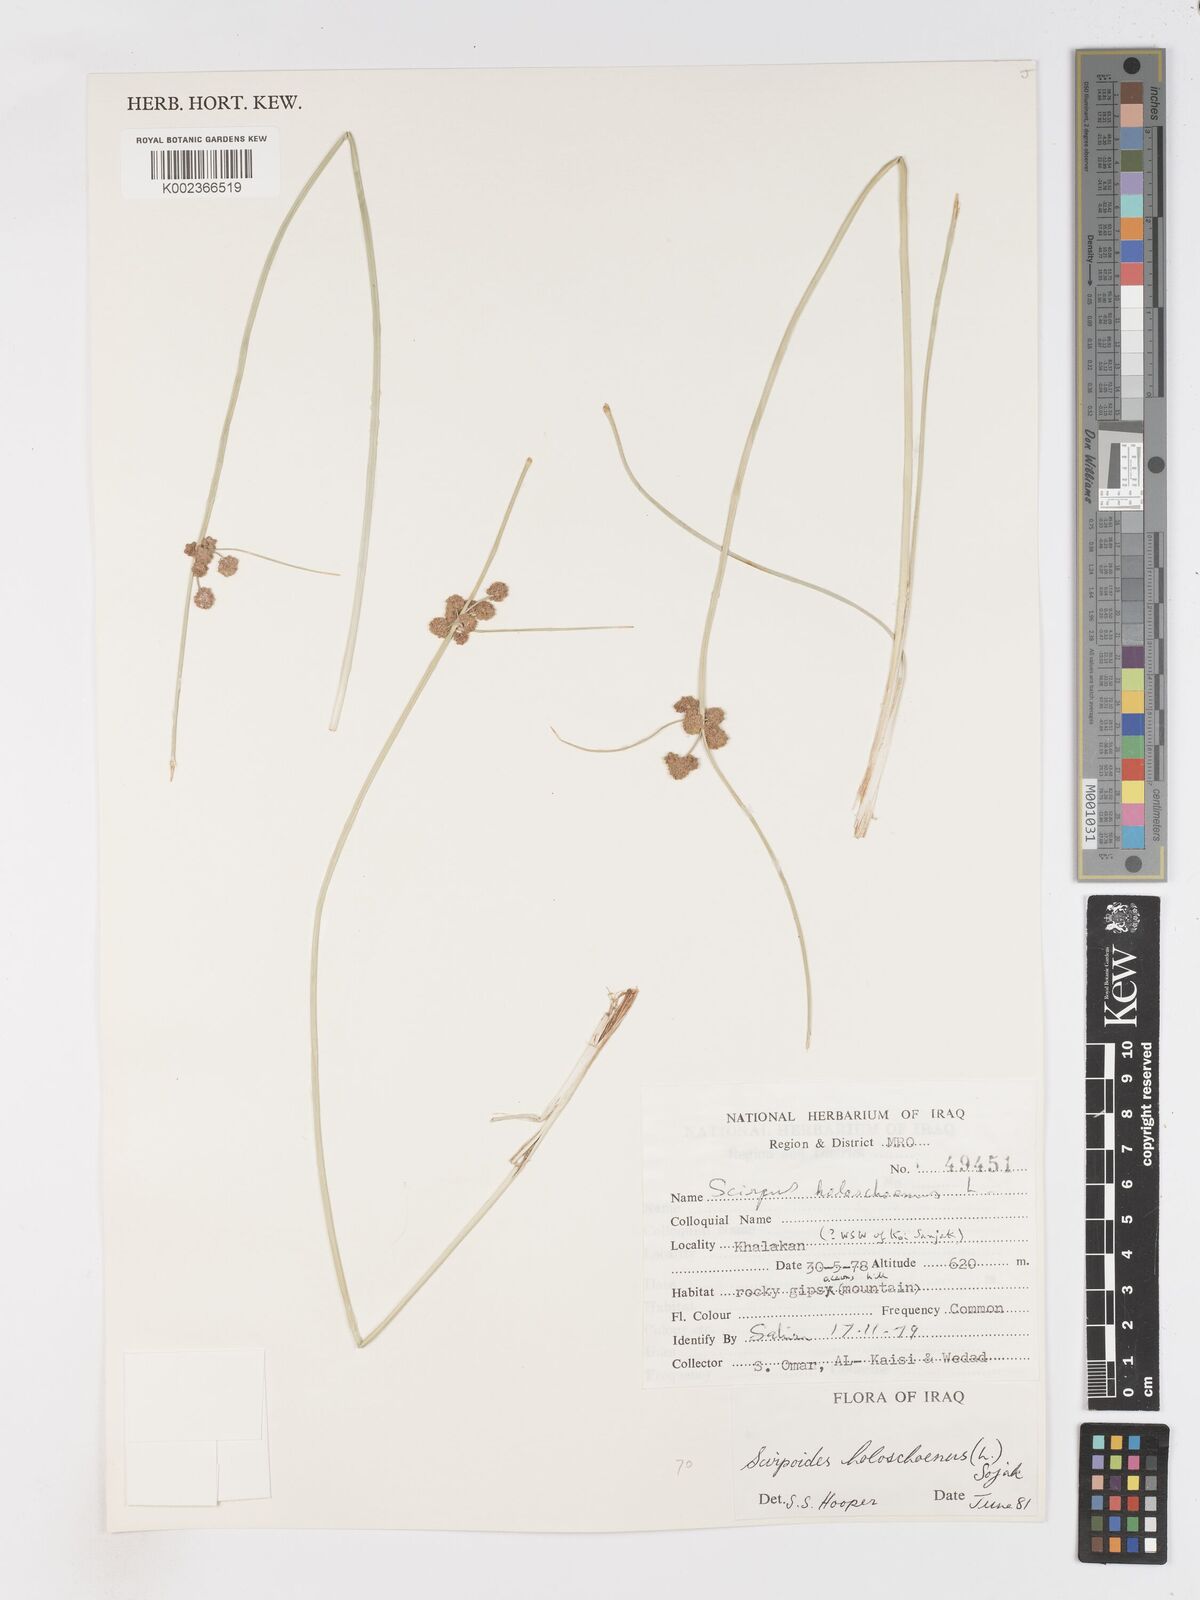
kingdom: Plantae
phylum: Tracheophyta
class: Liliopsida
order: Poales
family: Cyperaceae
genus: Scirpoides
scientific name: Scirpoides holoschoenus
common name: Round-headed club-rush
